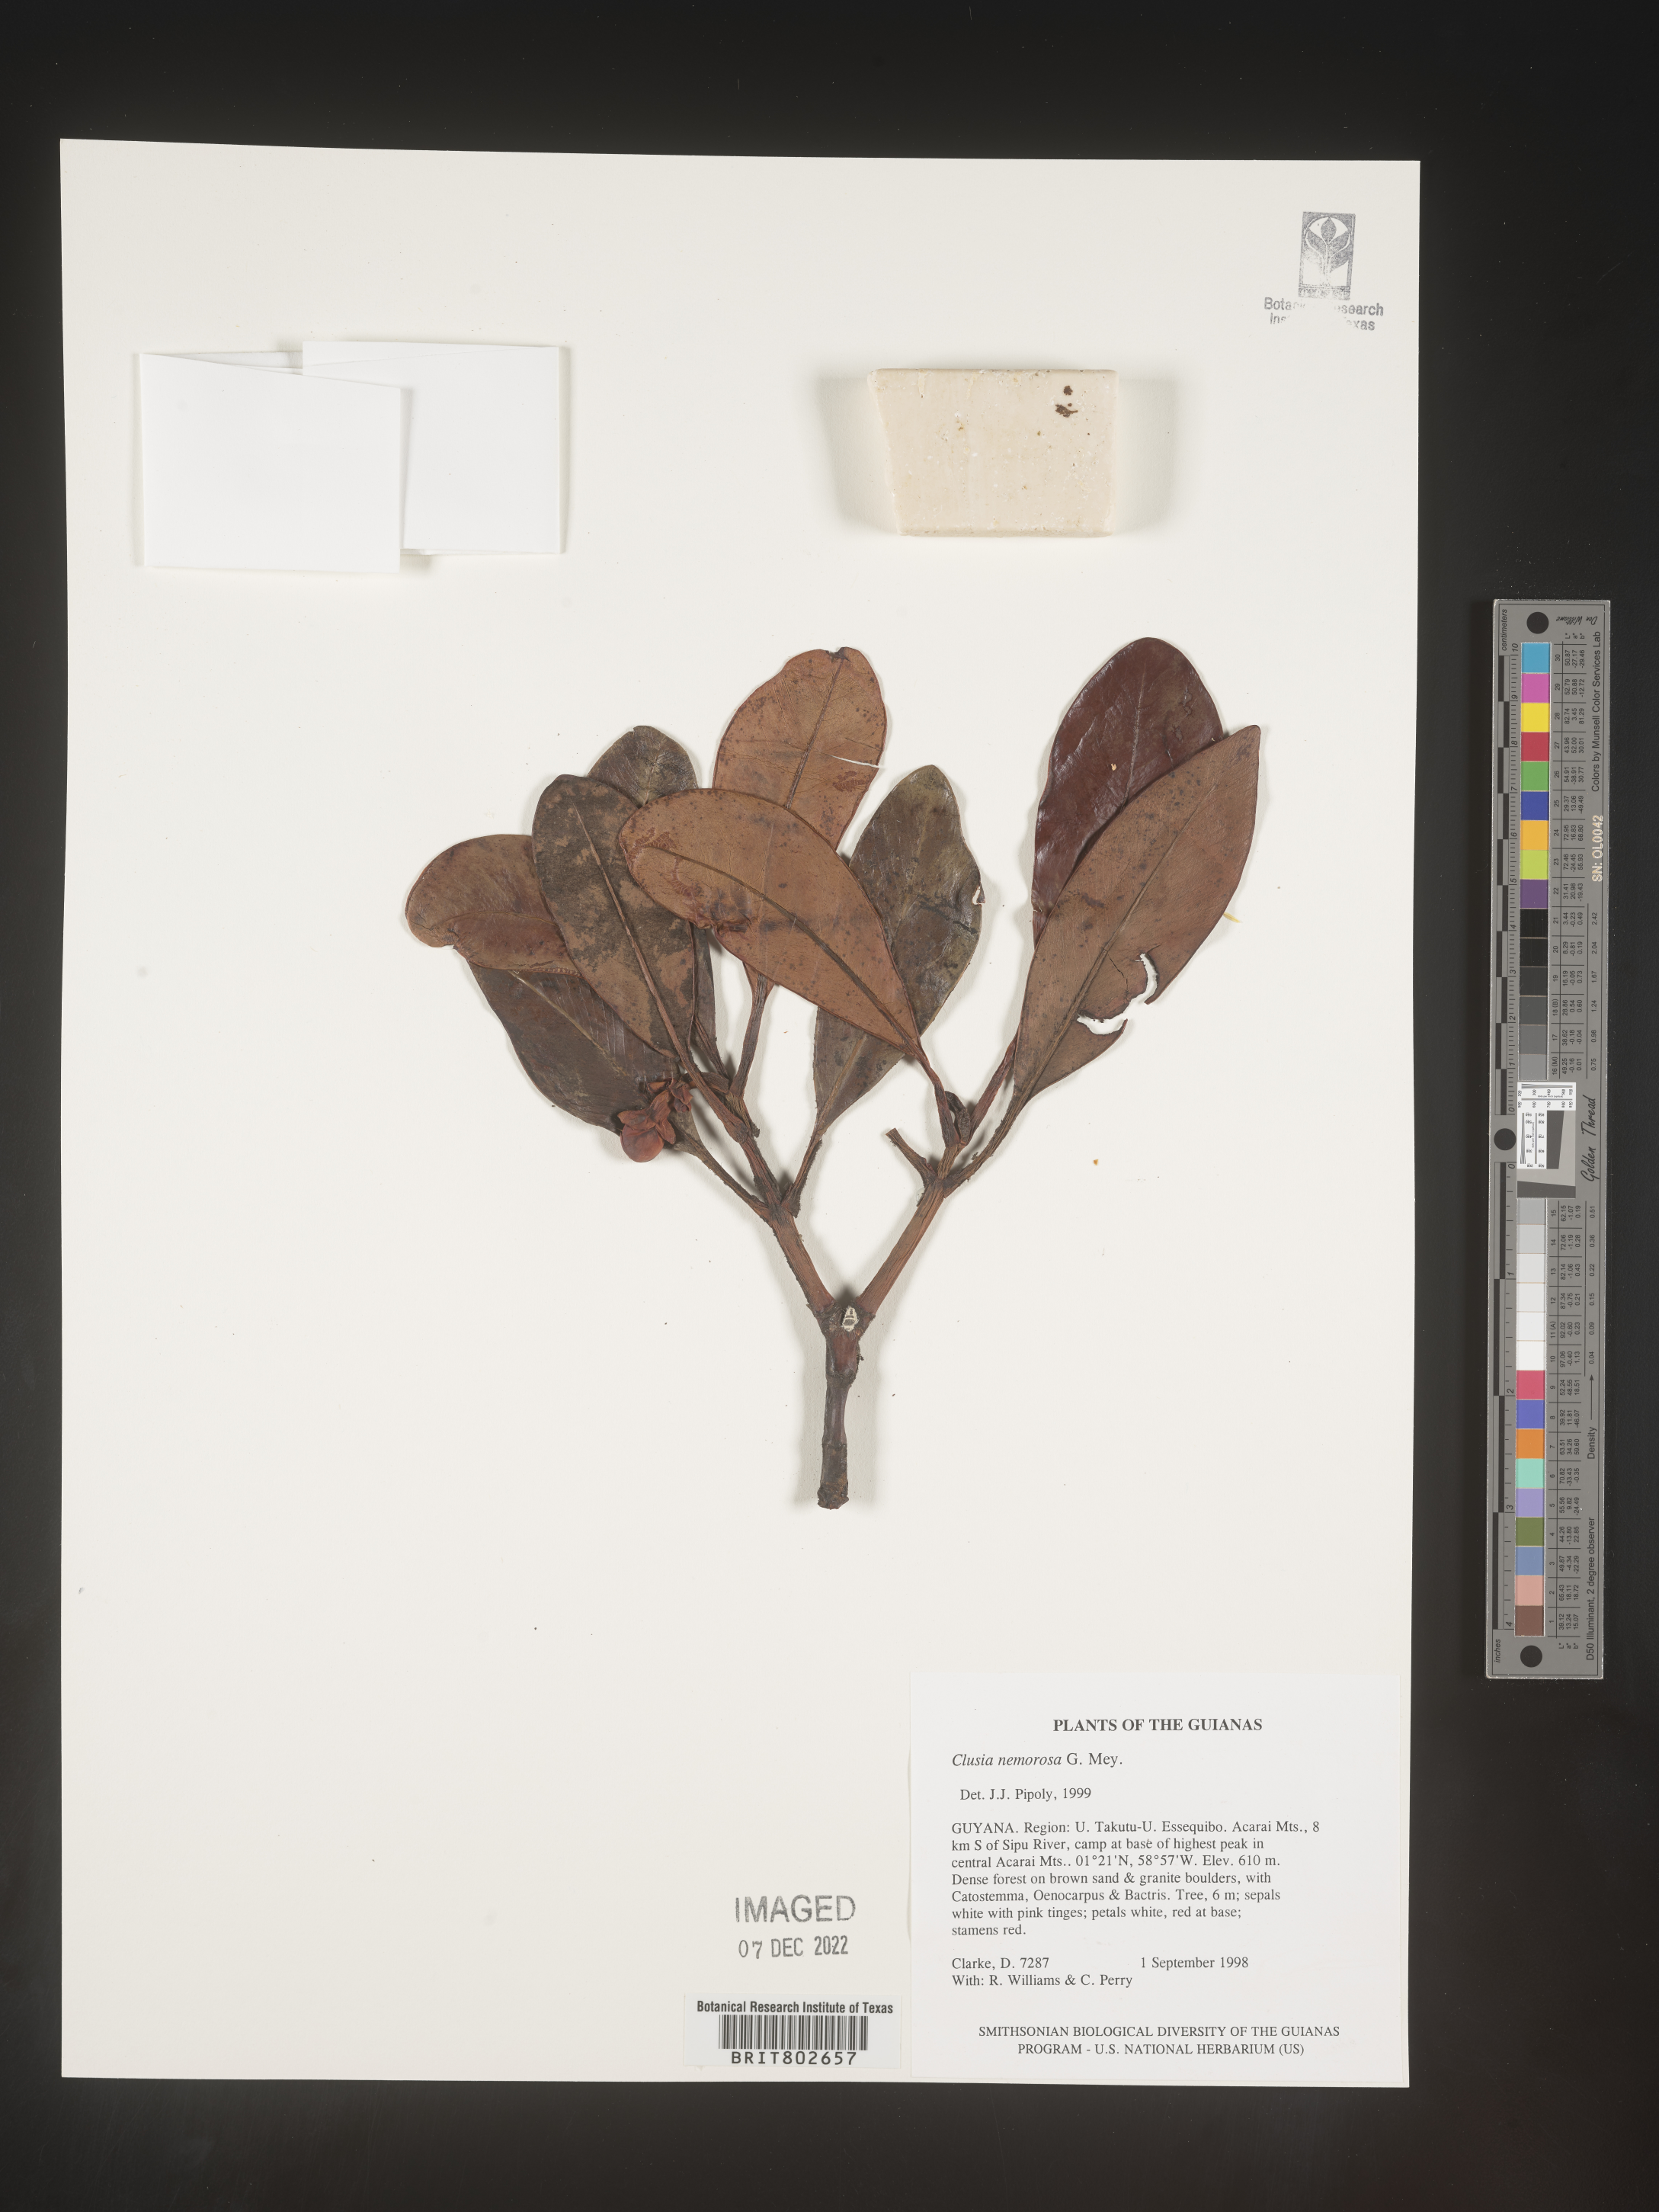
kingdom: Plantae
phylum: Tracheophyta
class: Magnoliopsida
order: Malpighiales
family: Clusiaceae
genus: Clusia
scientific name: Clusia nemorosa
